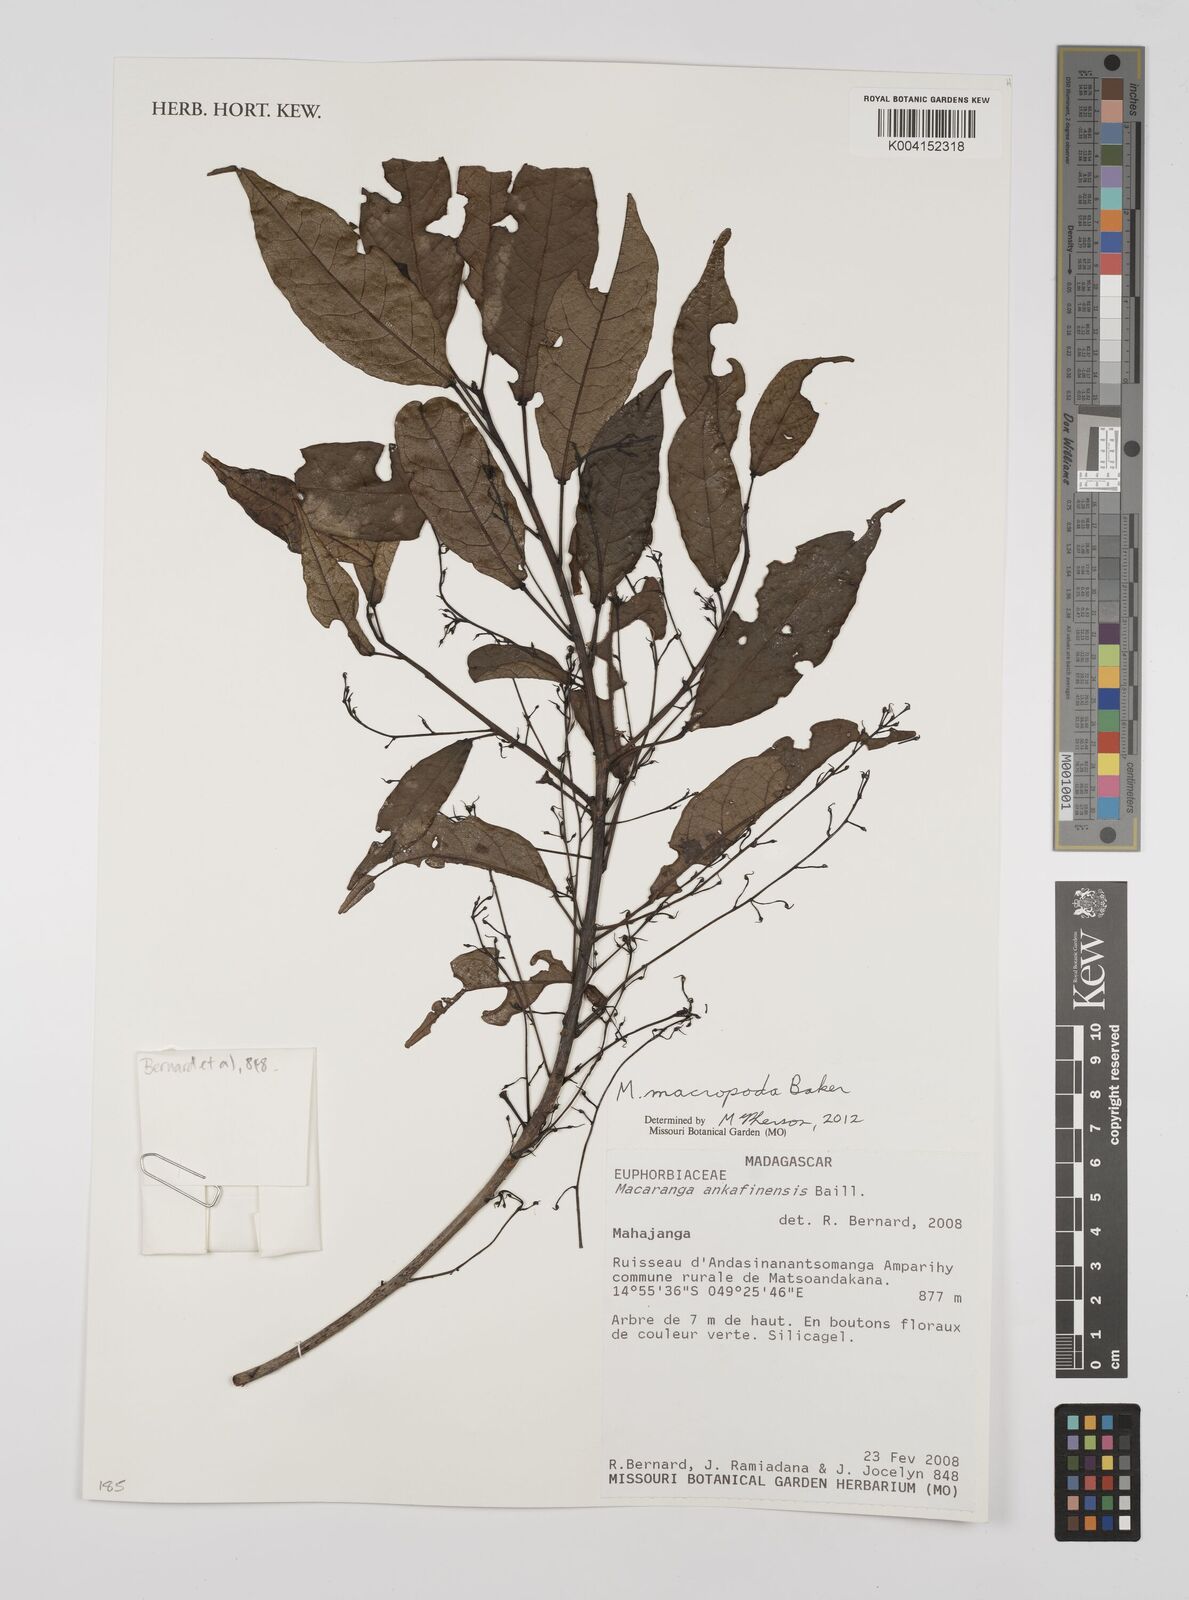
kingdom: Plantae
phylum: Tracheophyta
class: Magnoliopsida
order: Malpighiales
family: Euphorbiaceae
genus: Macaranga
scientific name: Macaranga macropoda
